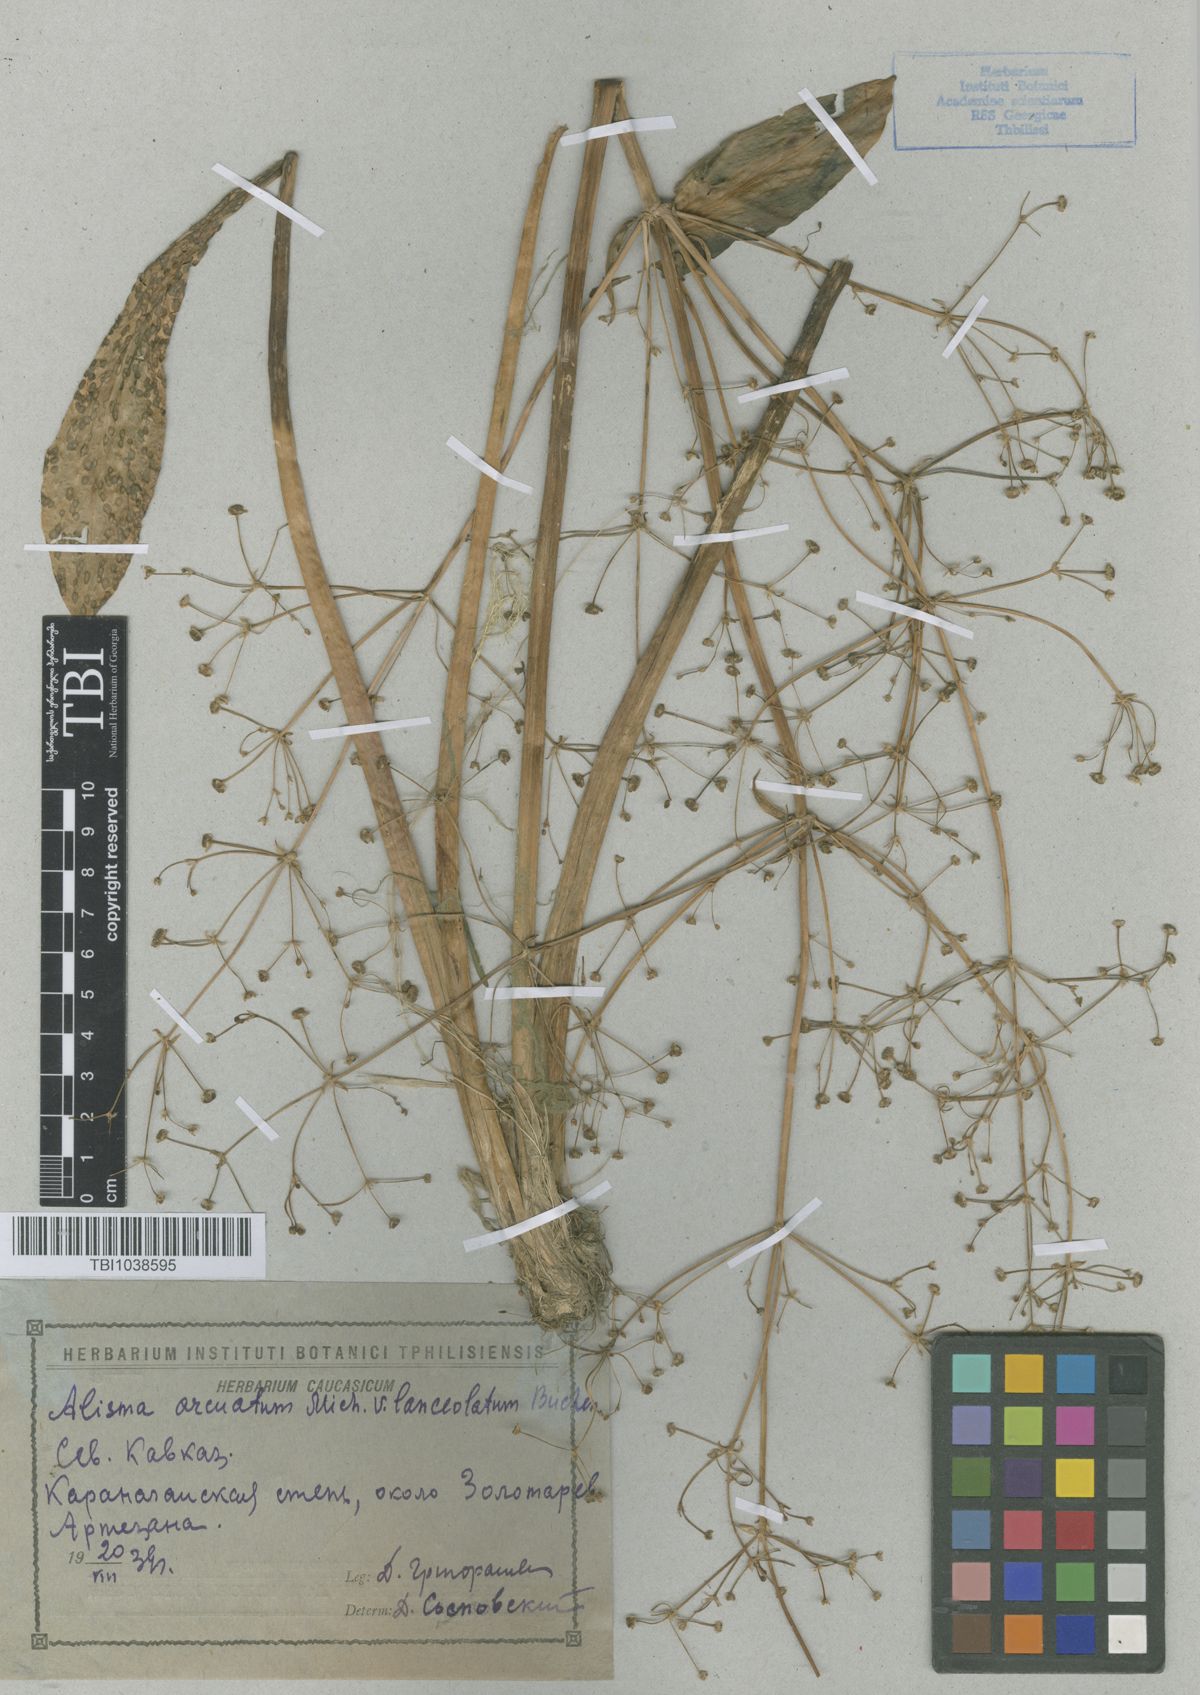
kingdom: Plantae
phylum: Tracheophyta
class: Liliopsida
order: Alismatales
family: Alismataceae
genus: Alisma
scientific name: Alisma gramineum
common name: Ribbon-leaved water-plantain
